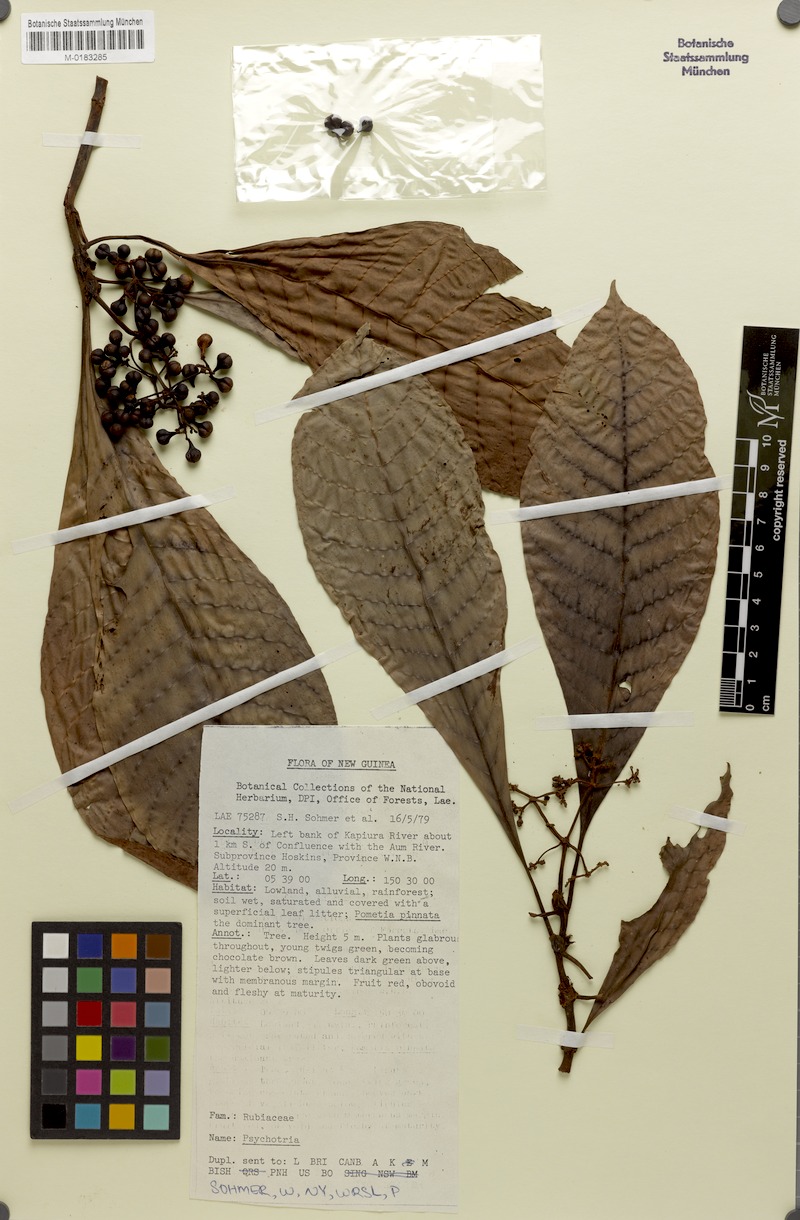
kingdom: Plantae
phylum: Tracheophyta
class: Magnoliopsida
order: Gentianales
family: Rubiaceae
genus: Psychotria
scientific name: Psychotria diplococca
